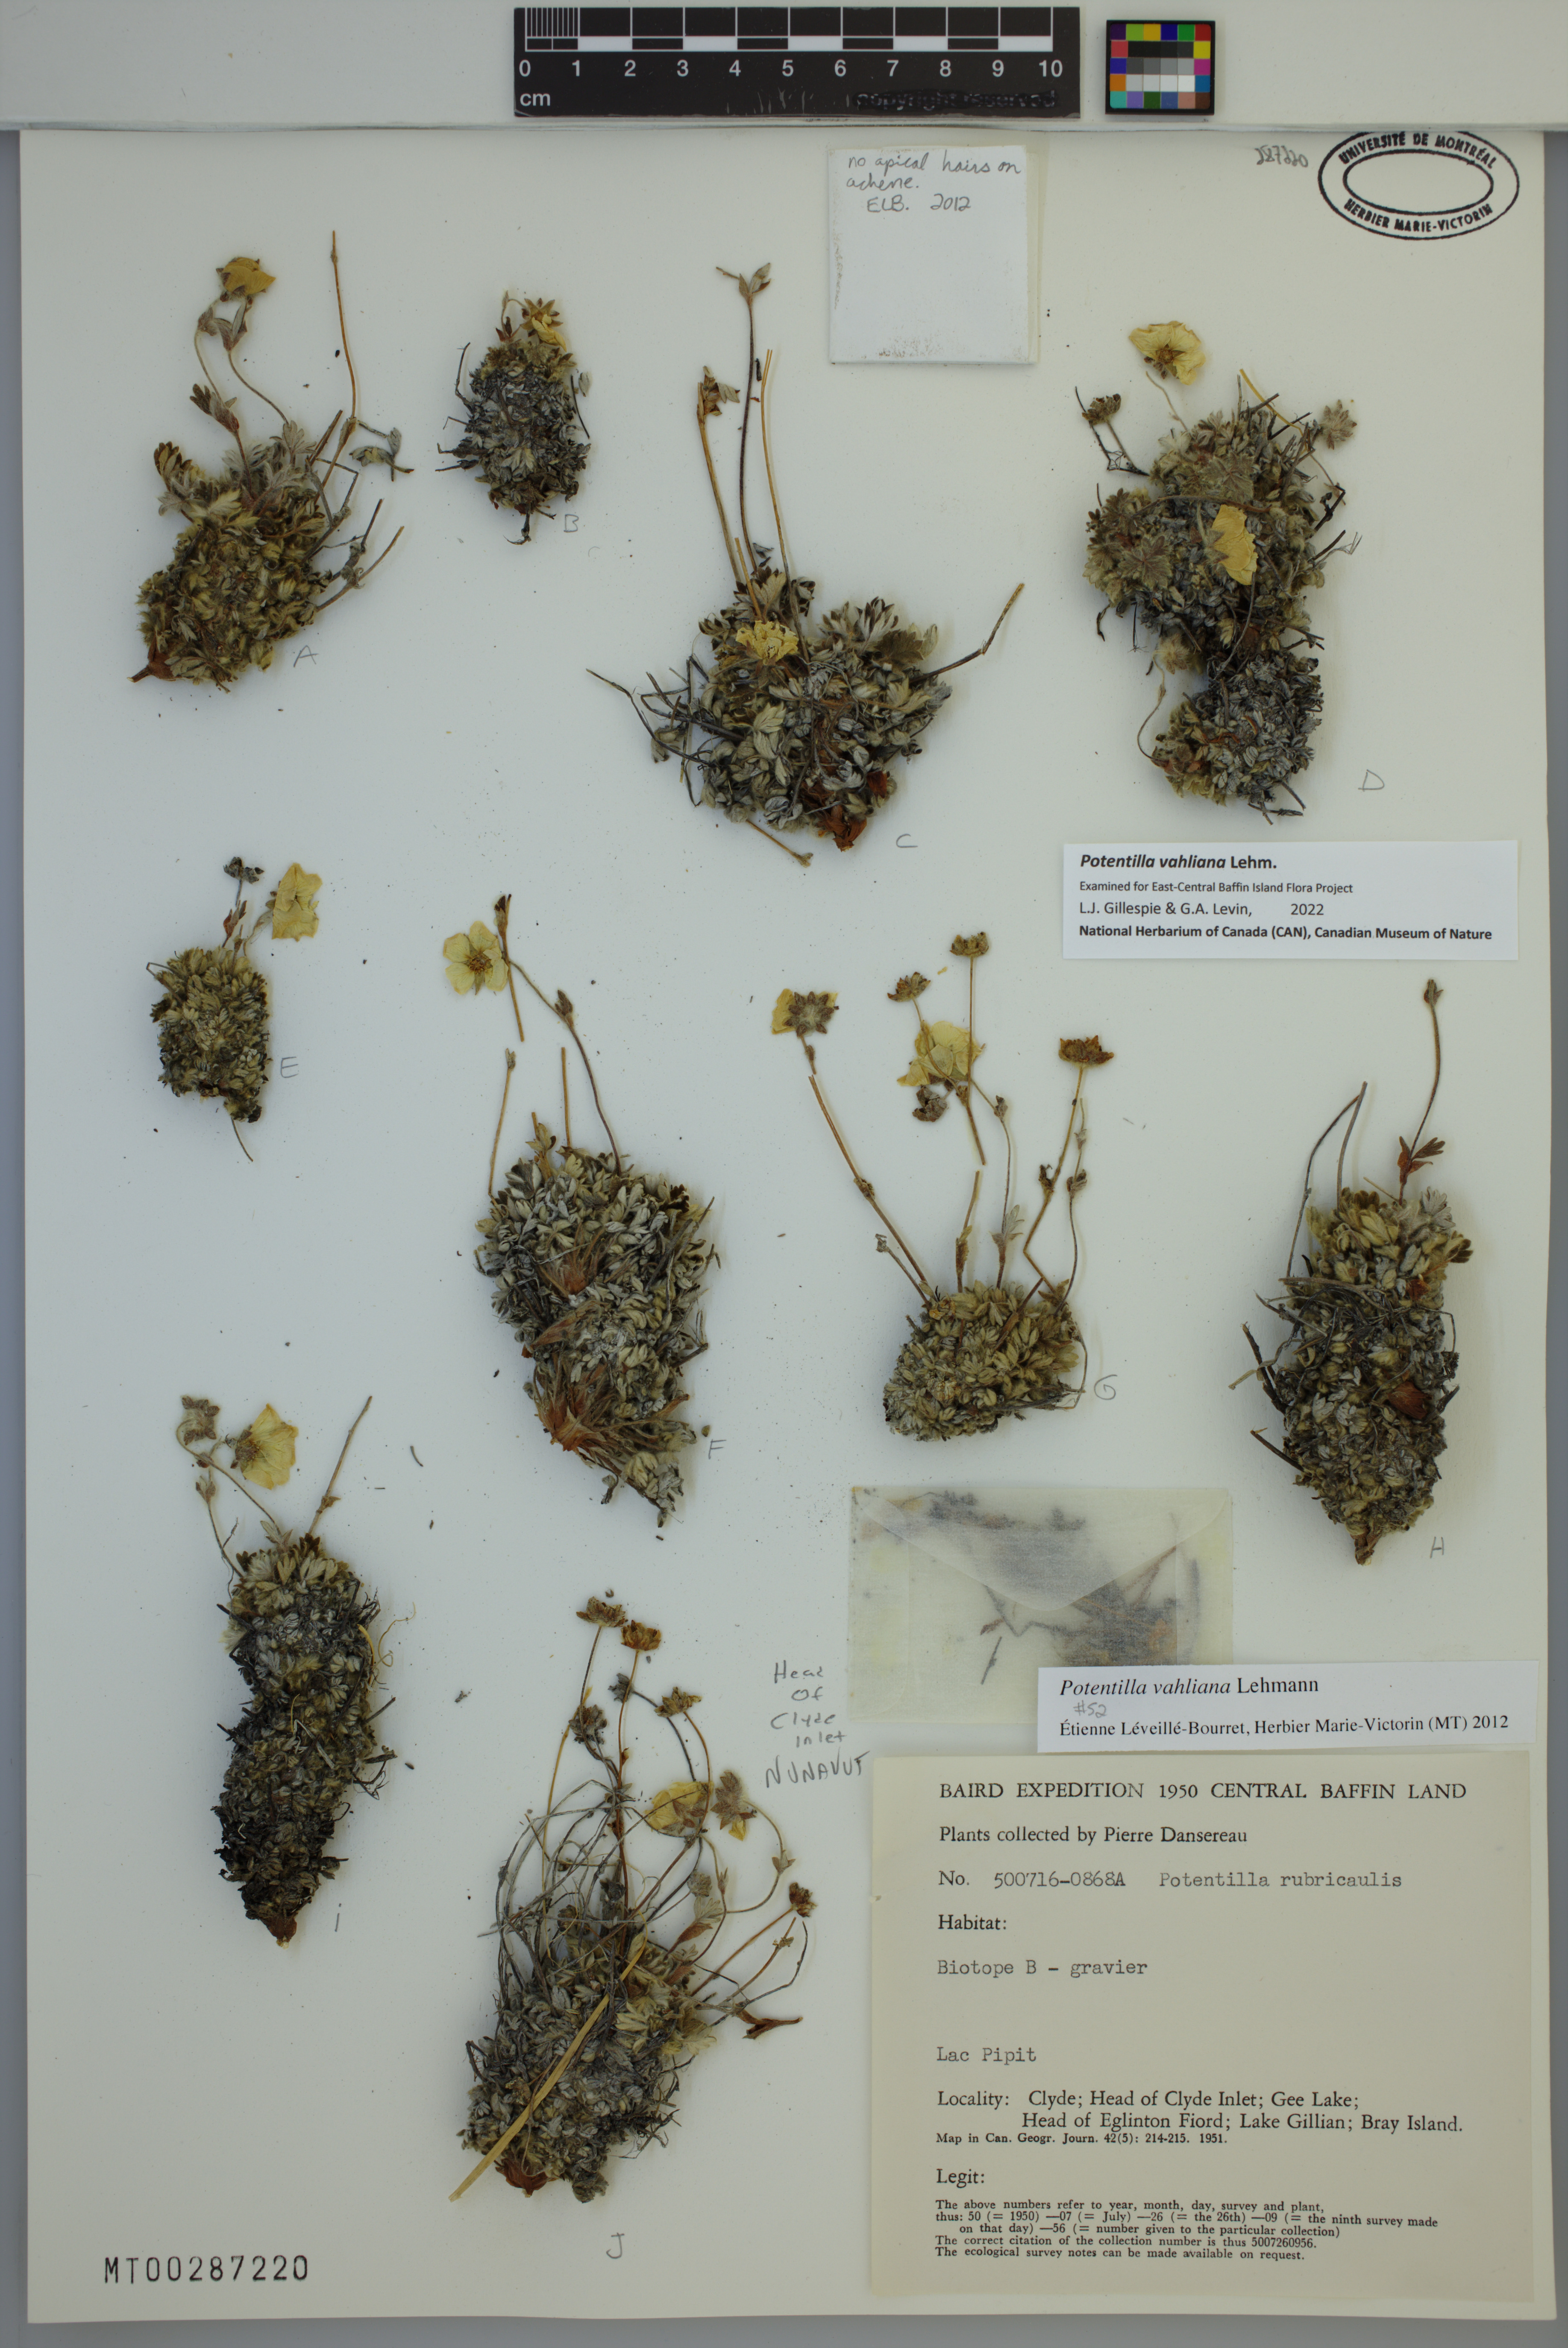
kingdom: Plantae
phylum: Tracheophyta
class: Magnoliopsida
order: Rosales
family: Rosaceae
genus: Potentilla
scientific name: Potentilla vahliana
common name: Vahl's cinquefoil
